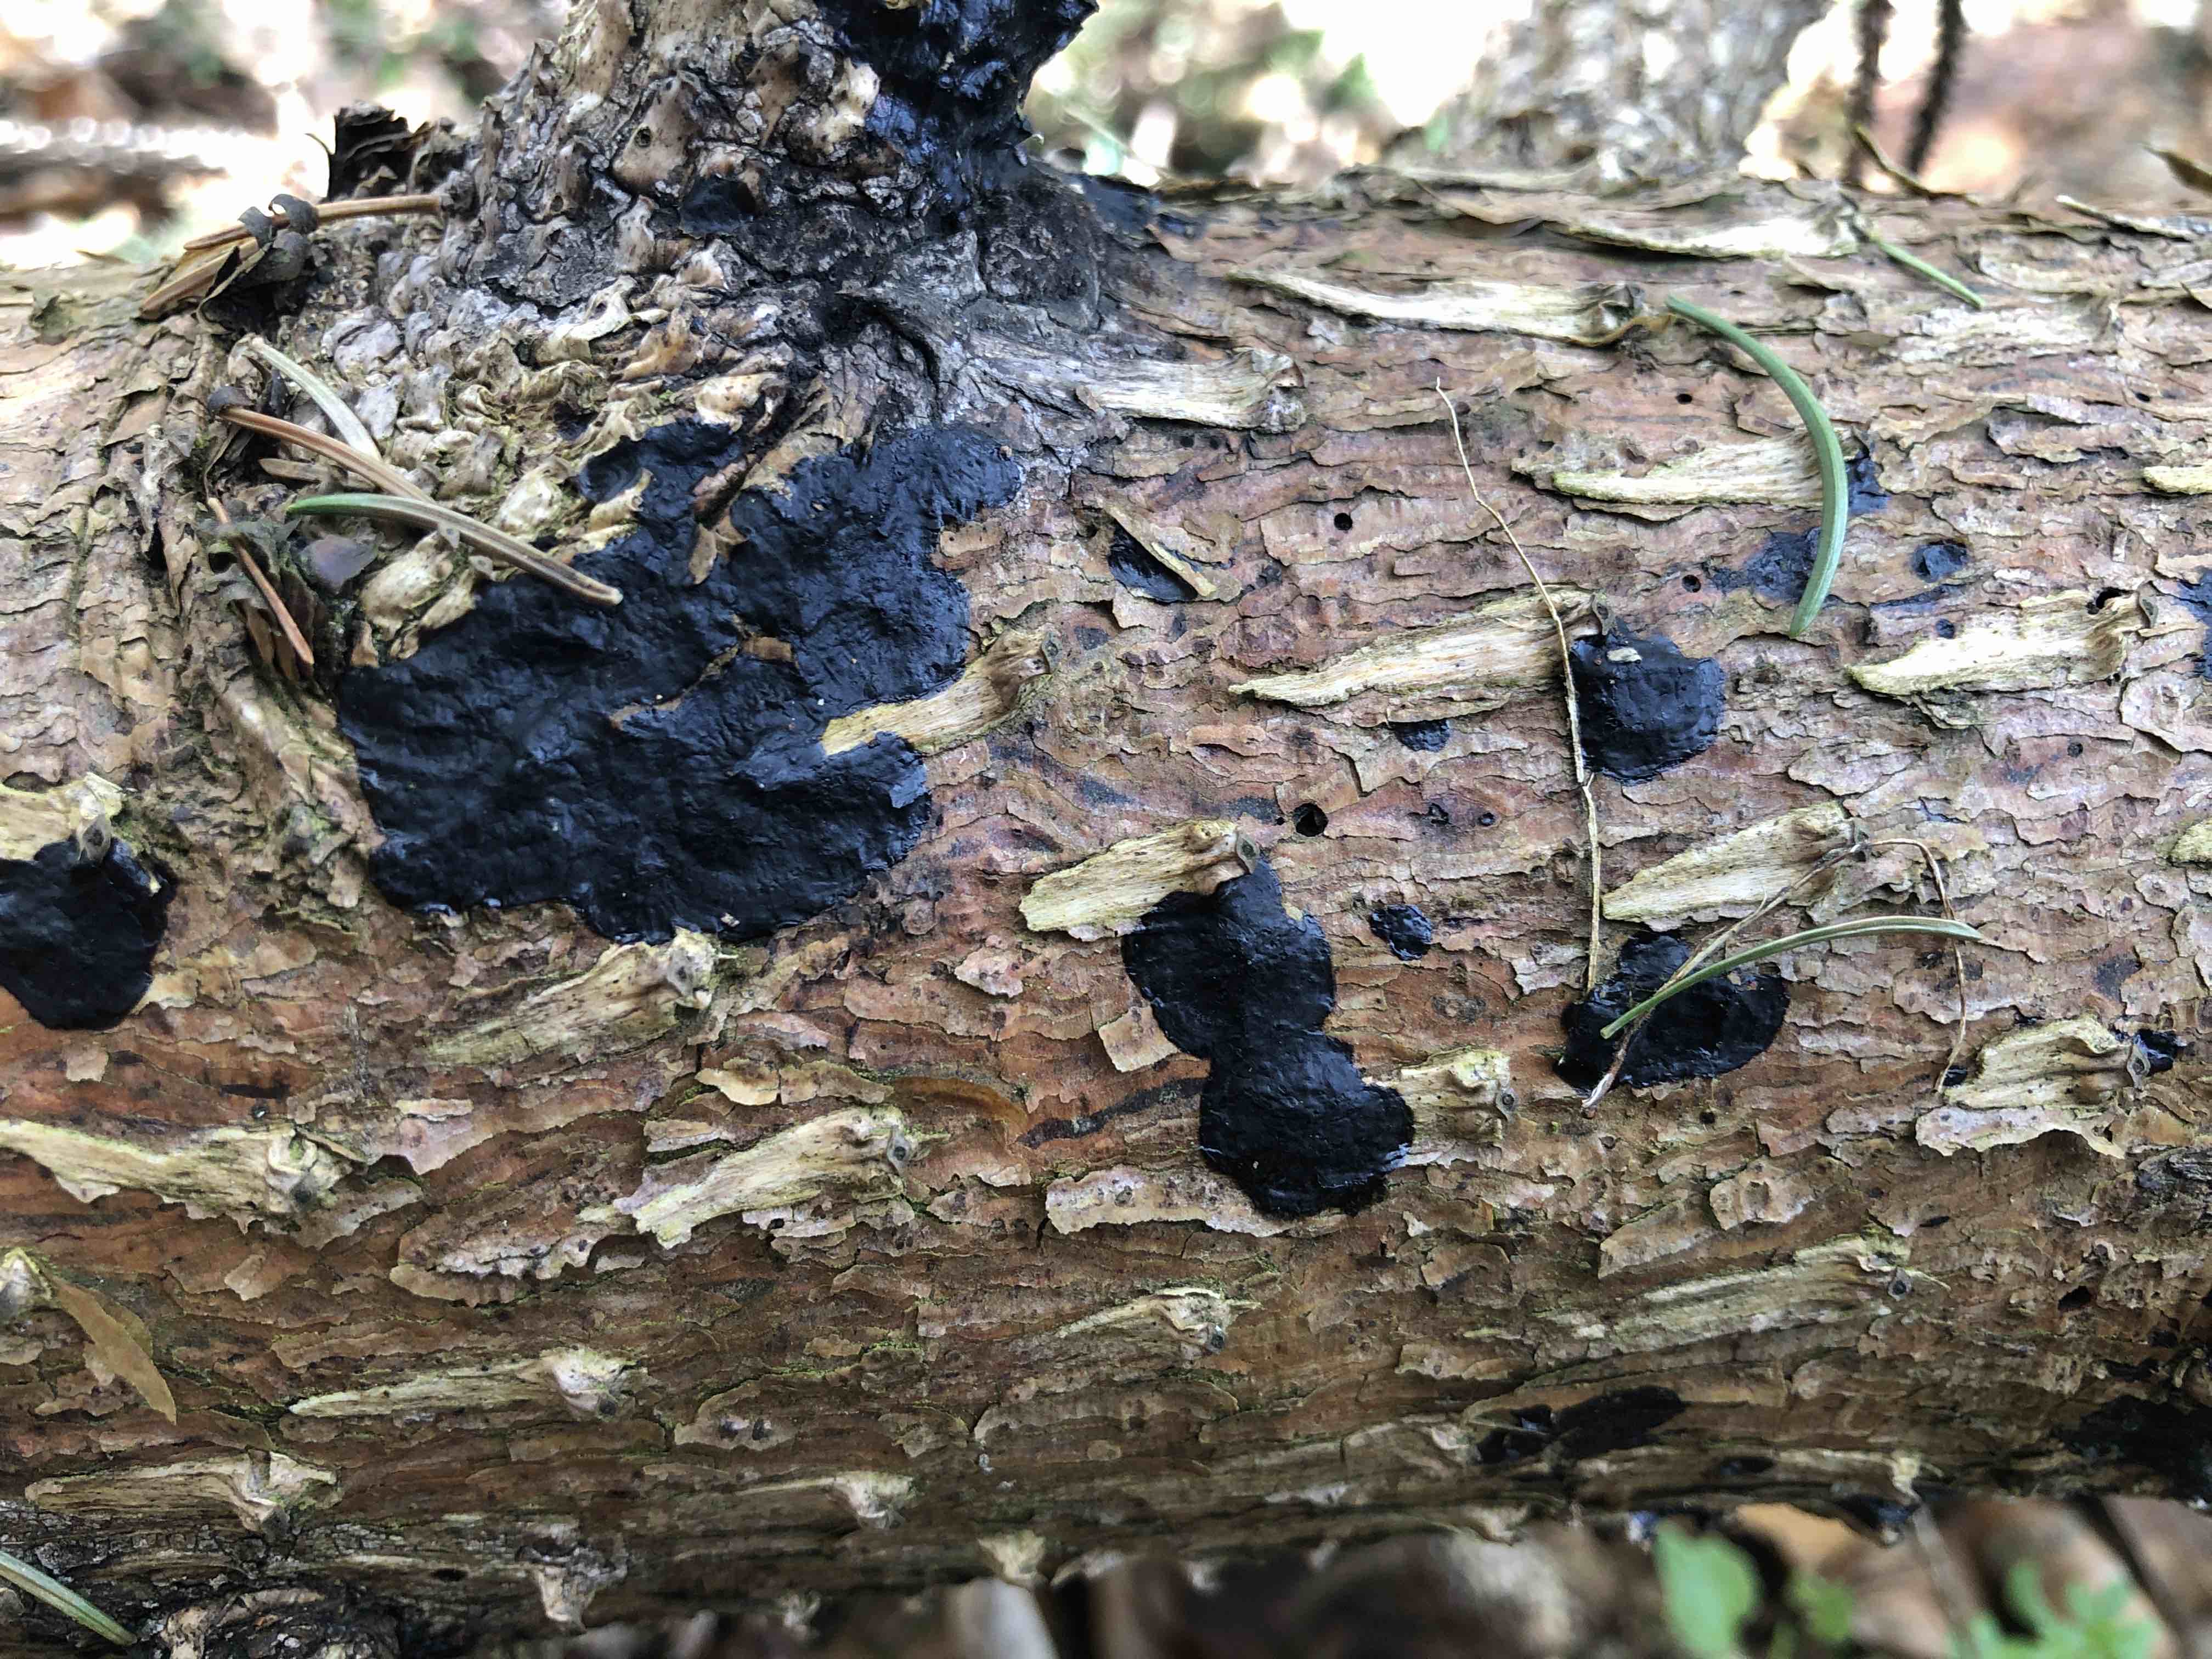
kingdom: Fungi
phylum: Basidiomycota
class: Agaricomycetes
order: Auriculariales
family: Auriculariaceae
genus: Exidia
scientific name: Exidia pithya
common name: gran-bævretop
